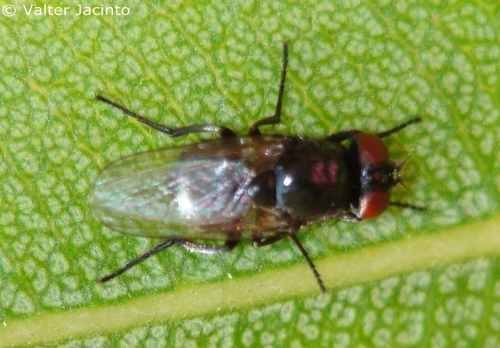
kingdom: Animalia
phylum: Arthropoda
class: Insecta
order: Diptera
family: Muscidae
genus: Hydrotaea
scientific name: Hydrotaea ignava
